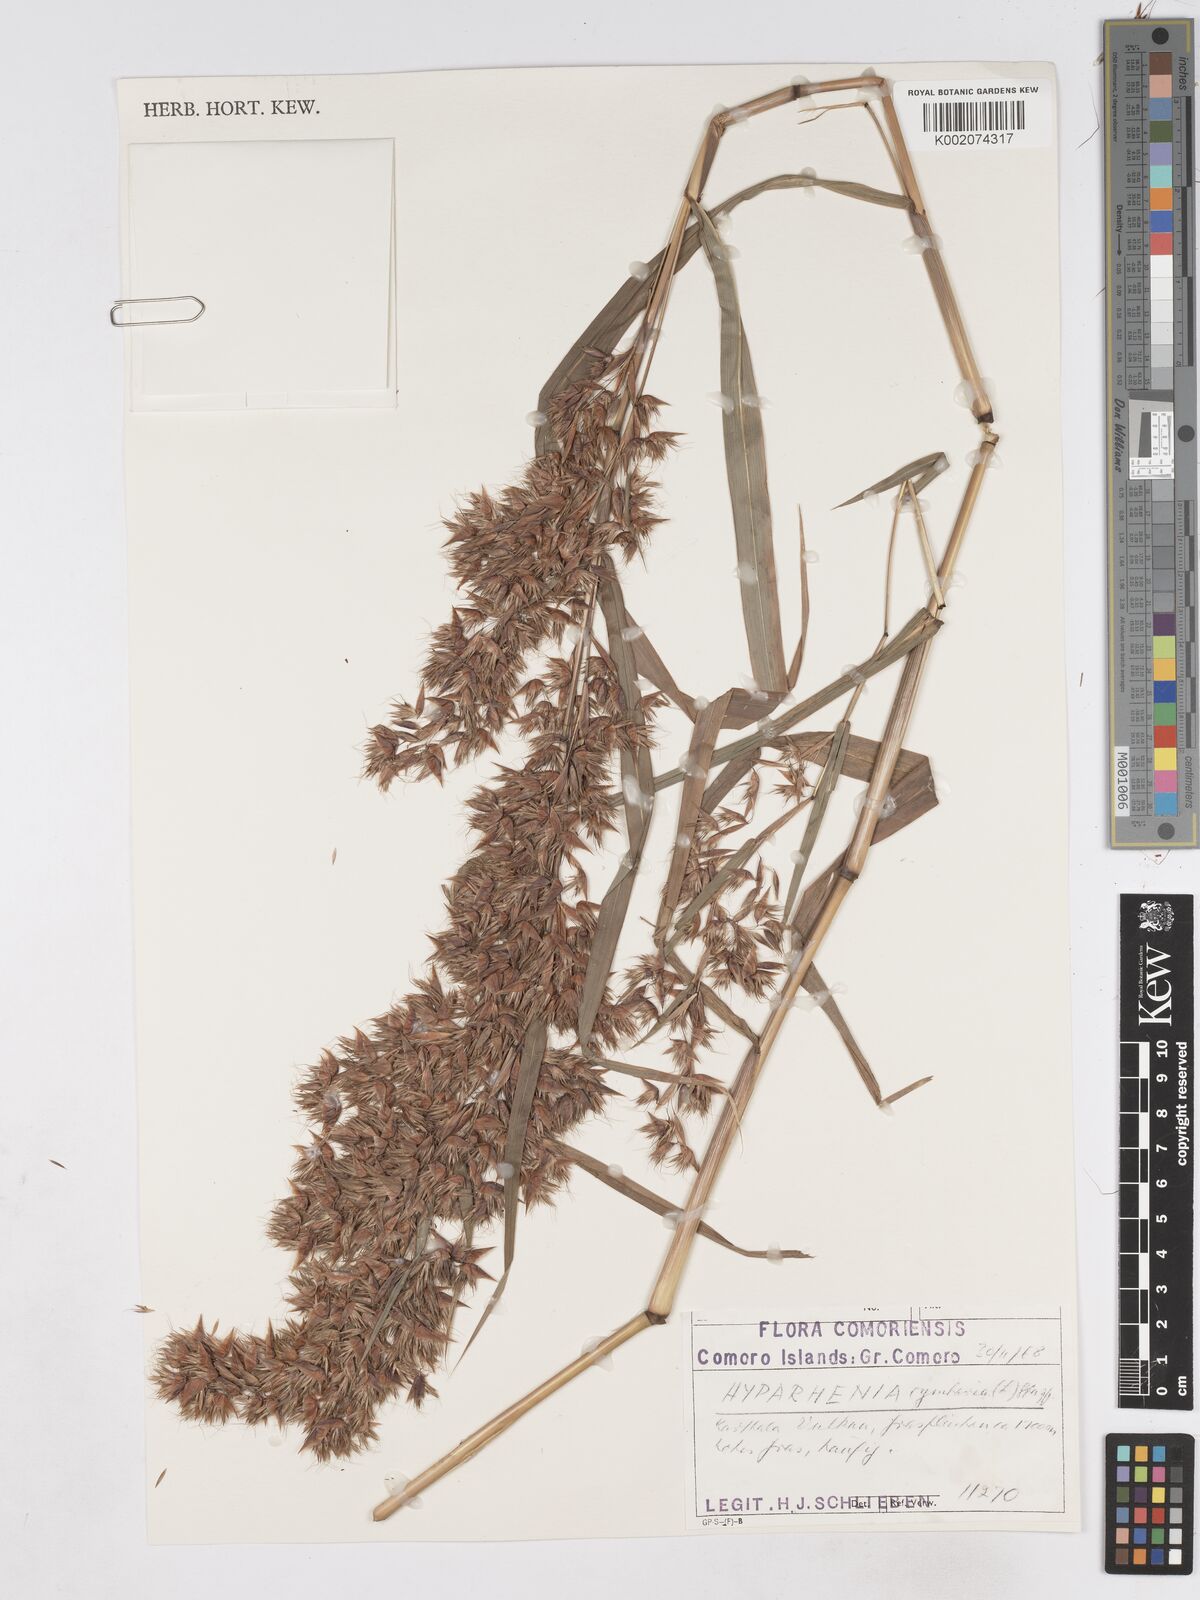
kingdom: Plantae
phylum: Tracheophyta
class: Liliopsida
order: Poales
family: Poaceae
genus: Hyparrhenia
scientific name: Hyparrhenia cymbaria
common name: Boat thatching grass
